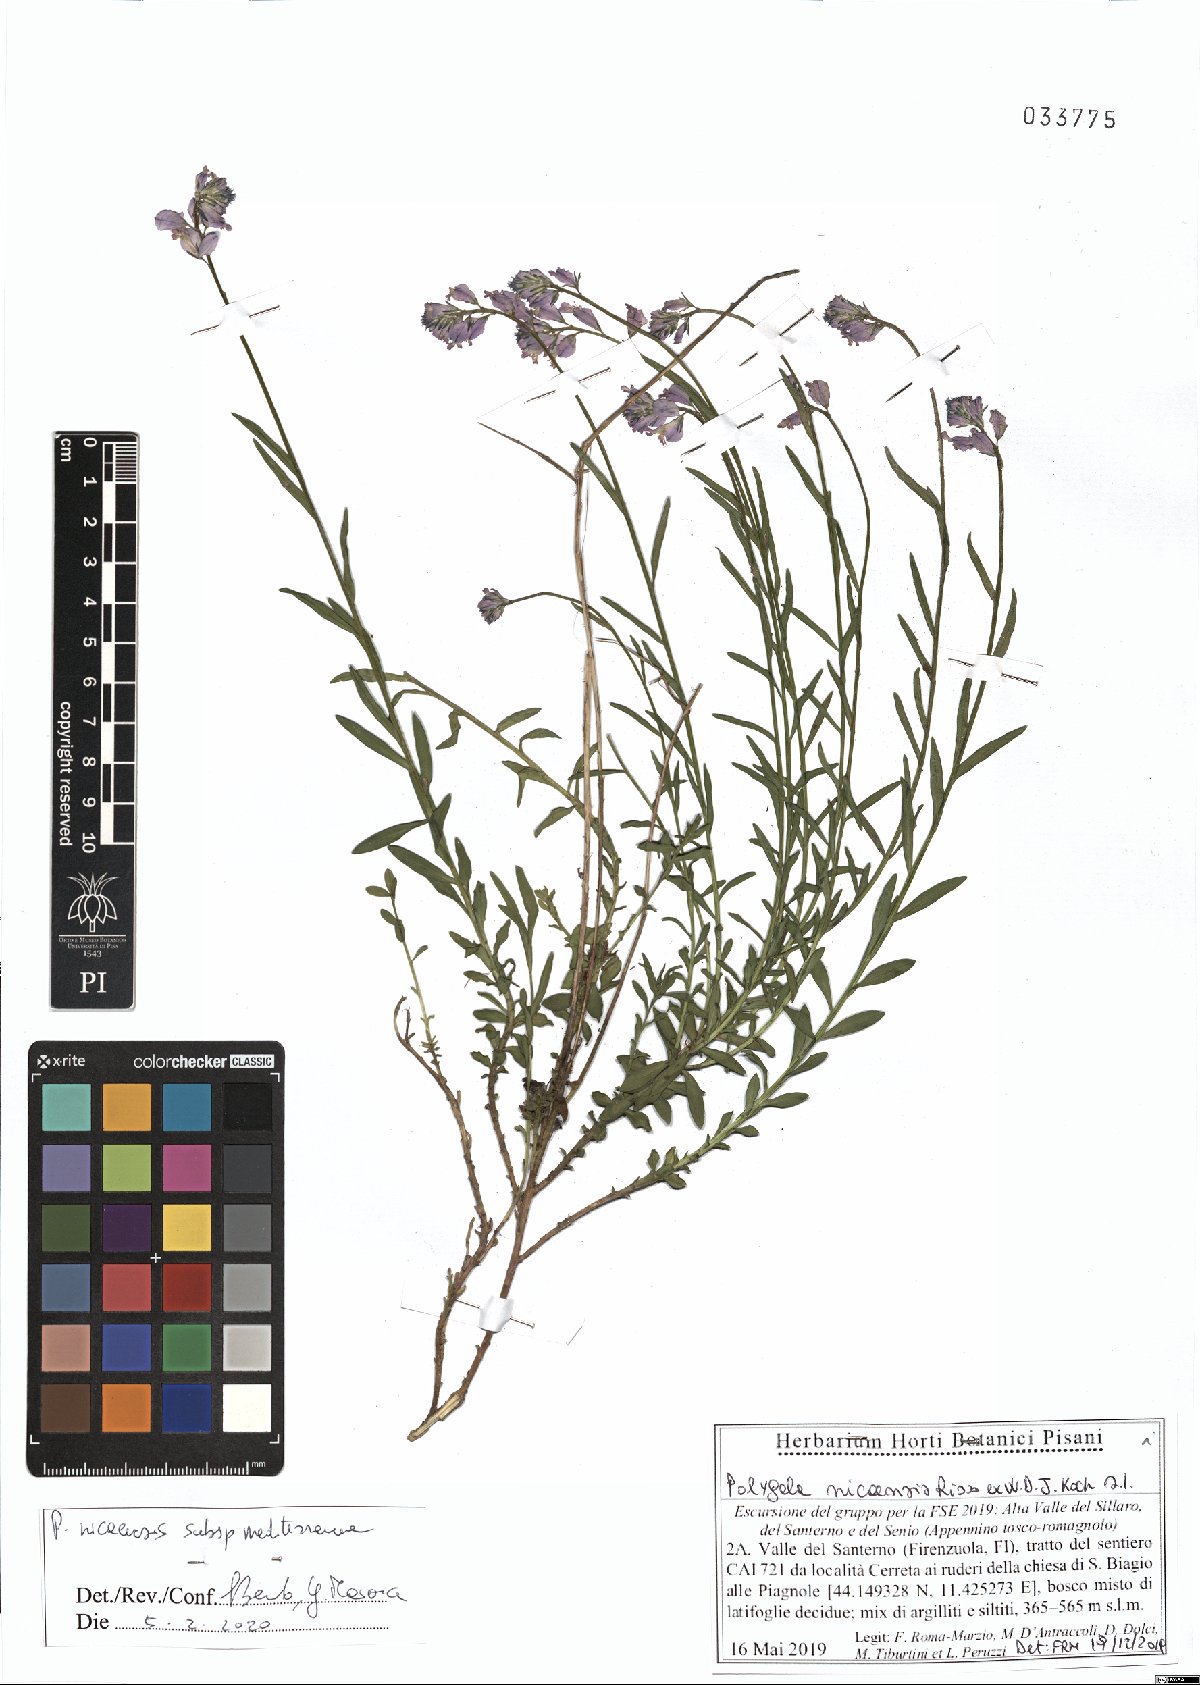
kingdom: Plantae
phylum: Tracheophyta
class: Magnoliopsida
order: Fabales
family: Polygalaceae
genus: Polygala
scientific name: Polygala nicaeensis
